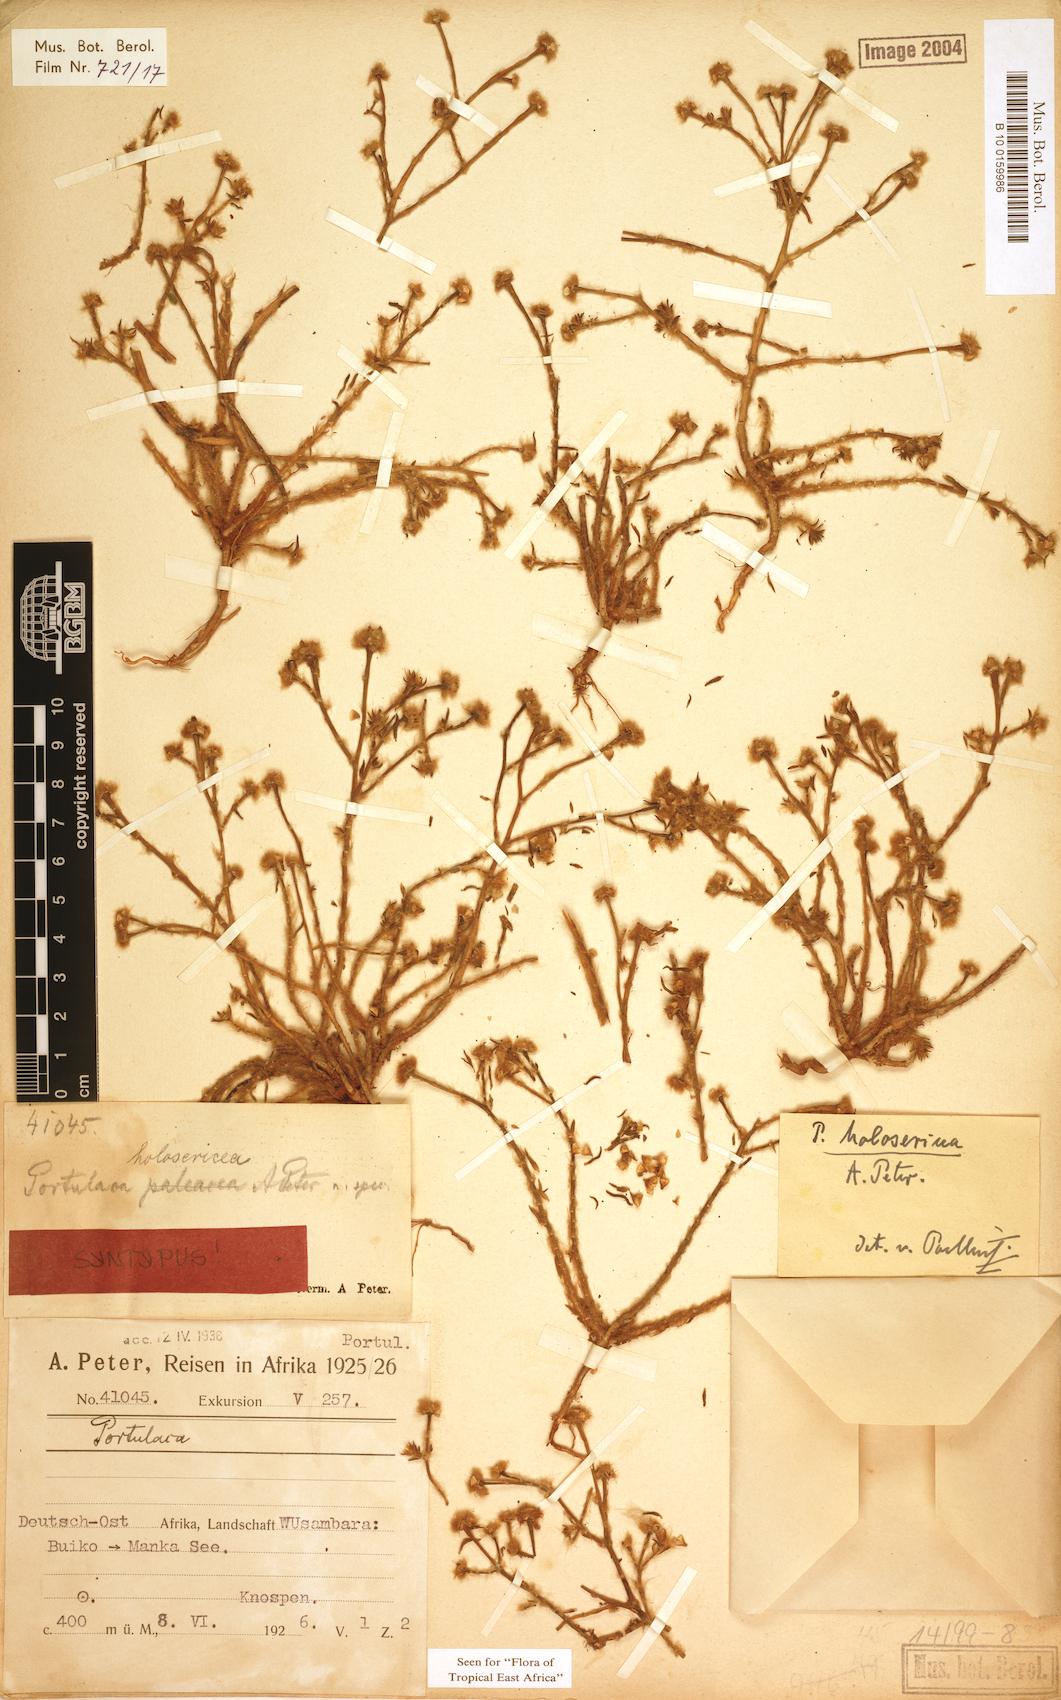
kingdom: Plantae
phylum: Tracheophyta
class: Magnoliopsida
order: Caryophyllales
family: Portulacaceae
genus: Portulaca
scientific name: Portulaca kermesina
